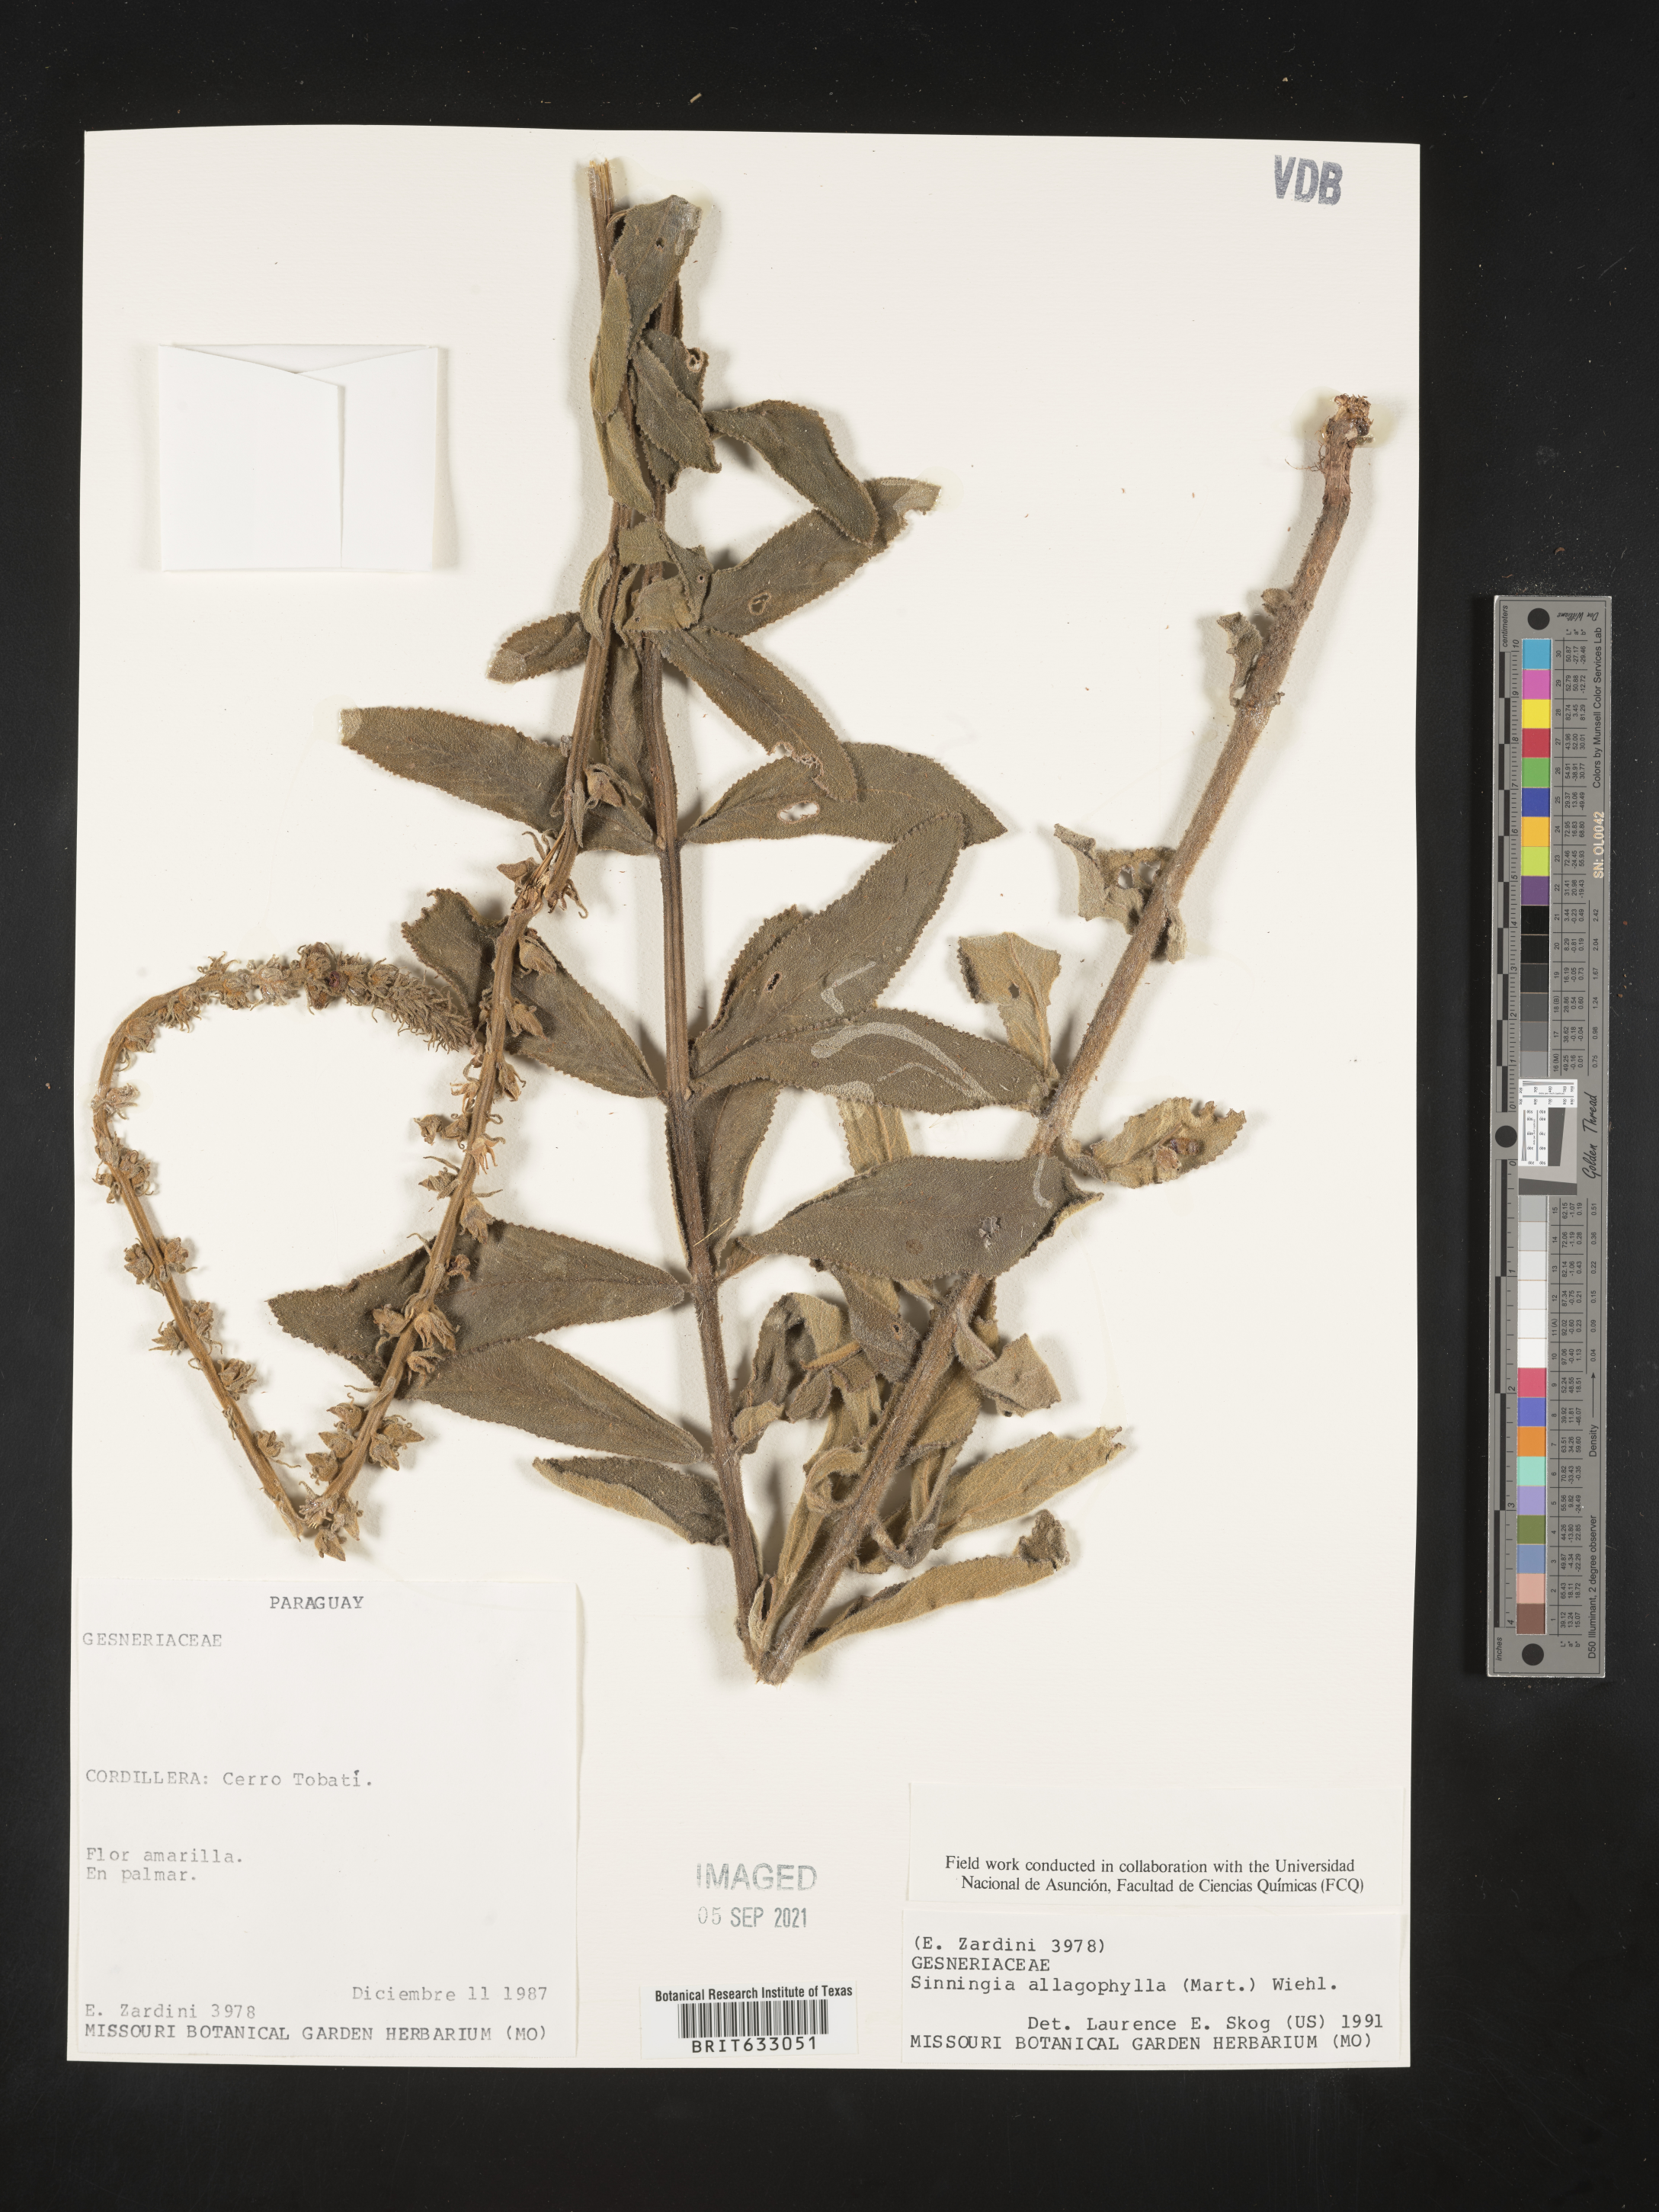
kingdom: Plantae
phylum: Tracheophyta
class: Magnoliopsida
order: Lamiales
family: Gesneriaceae
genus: Sinningia
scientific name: Sinningia
